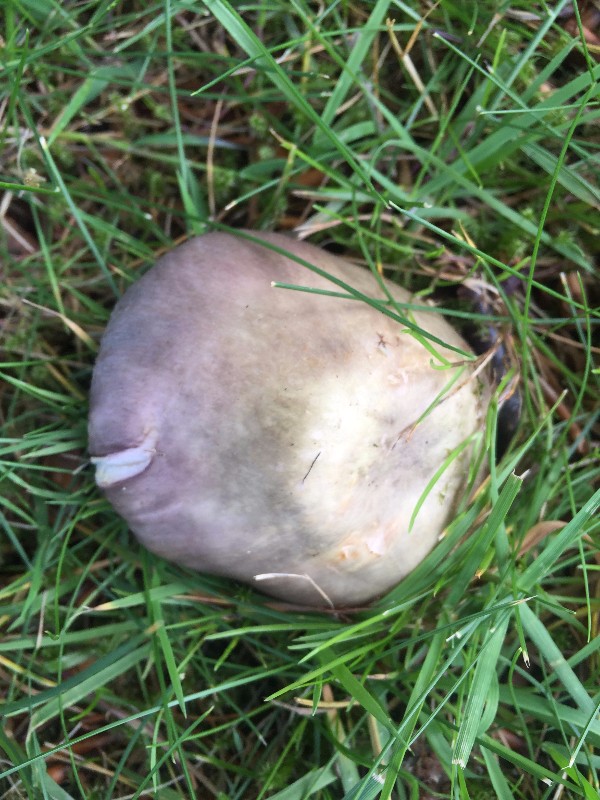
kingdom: Fungi
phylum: Basidiomycota
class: Agaricomycetes
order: Russulales
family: Russulaceae
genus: Russula
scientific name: Russula ionochlora
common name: violetgrøn skørhat
